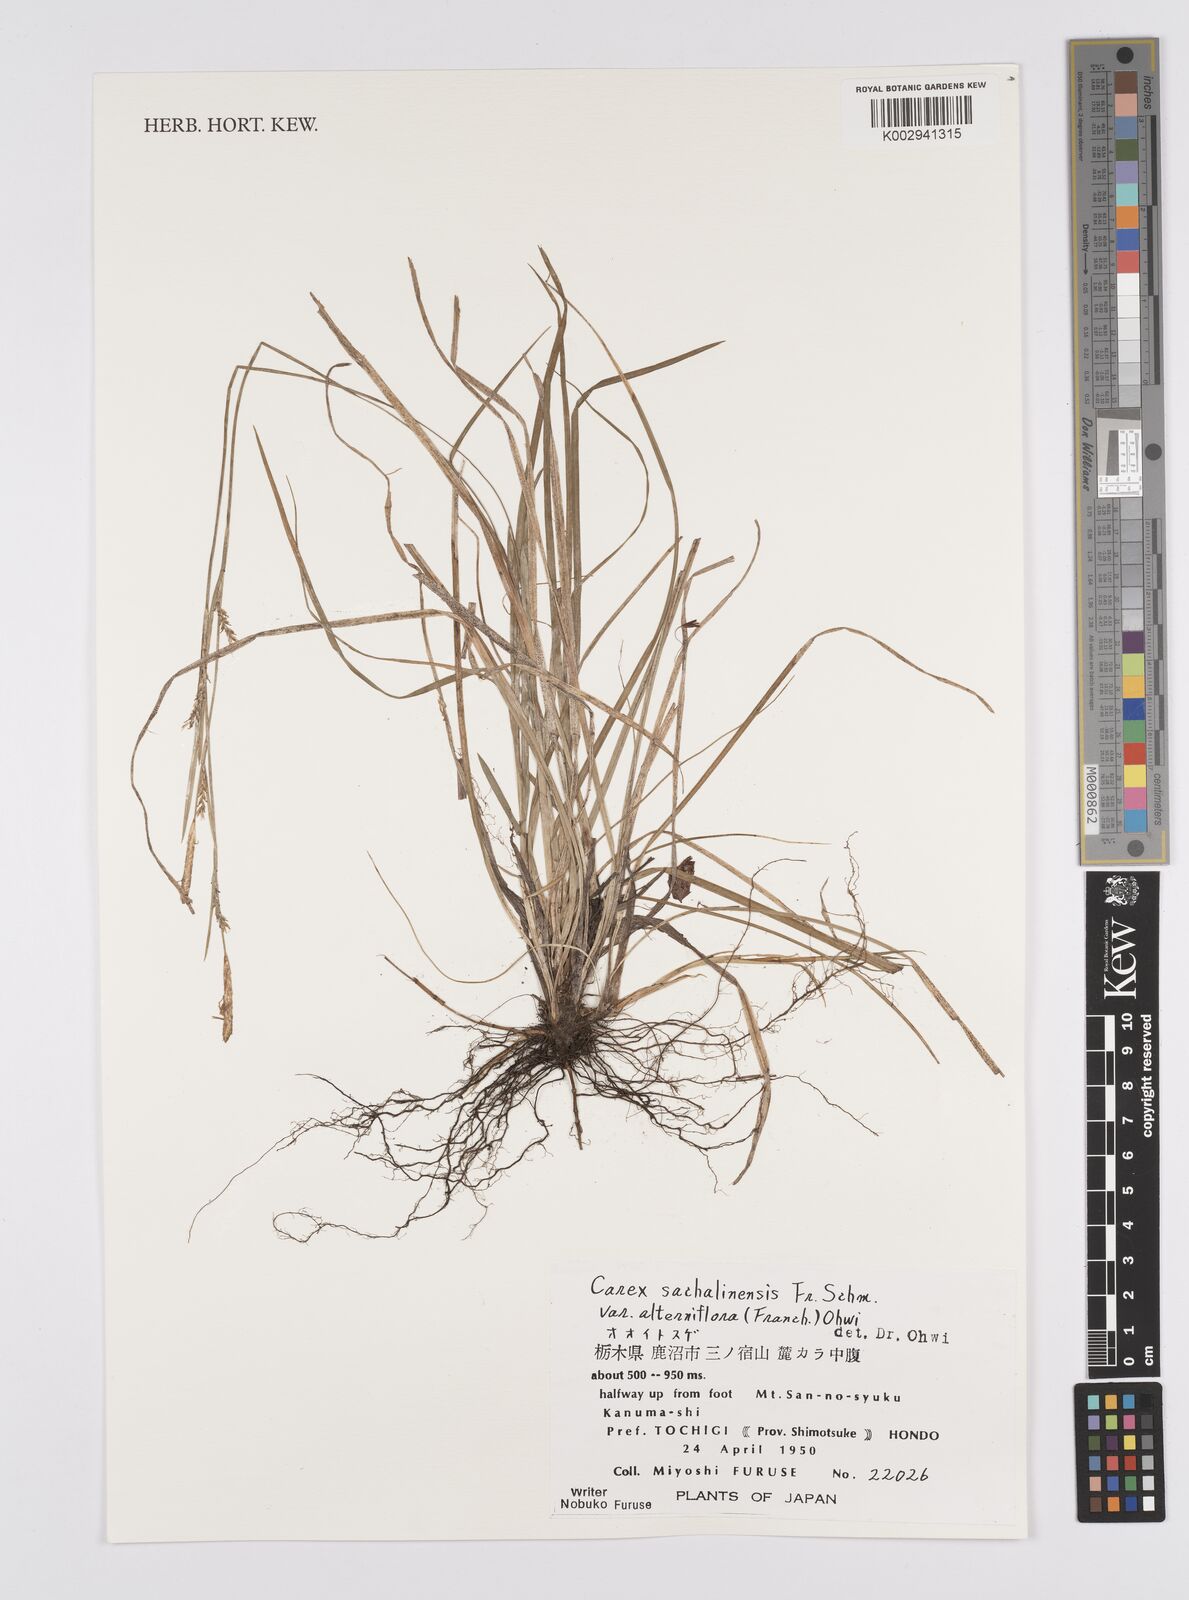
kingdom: Plantae
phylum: Tracheophyta
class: Liliopsida
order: Poales
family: Cyperaceae
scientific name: Cyperaceae
